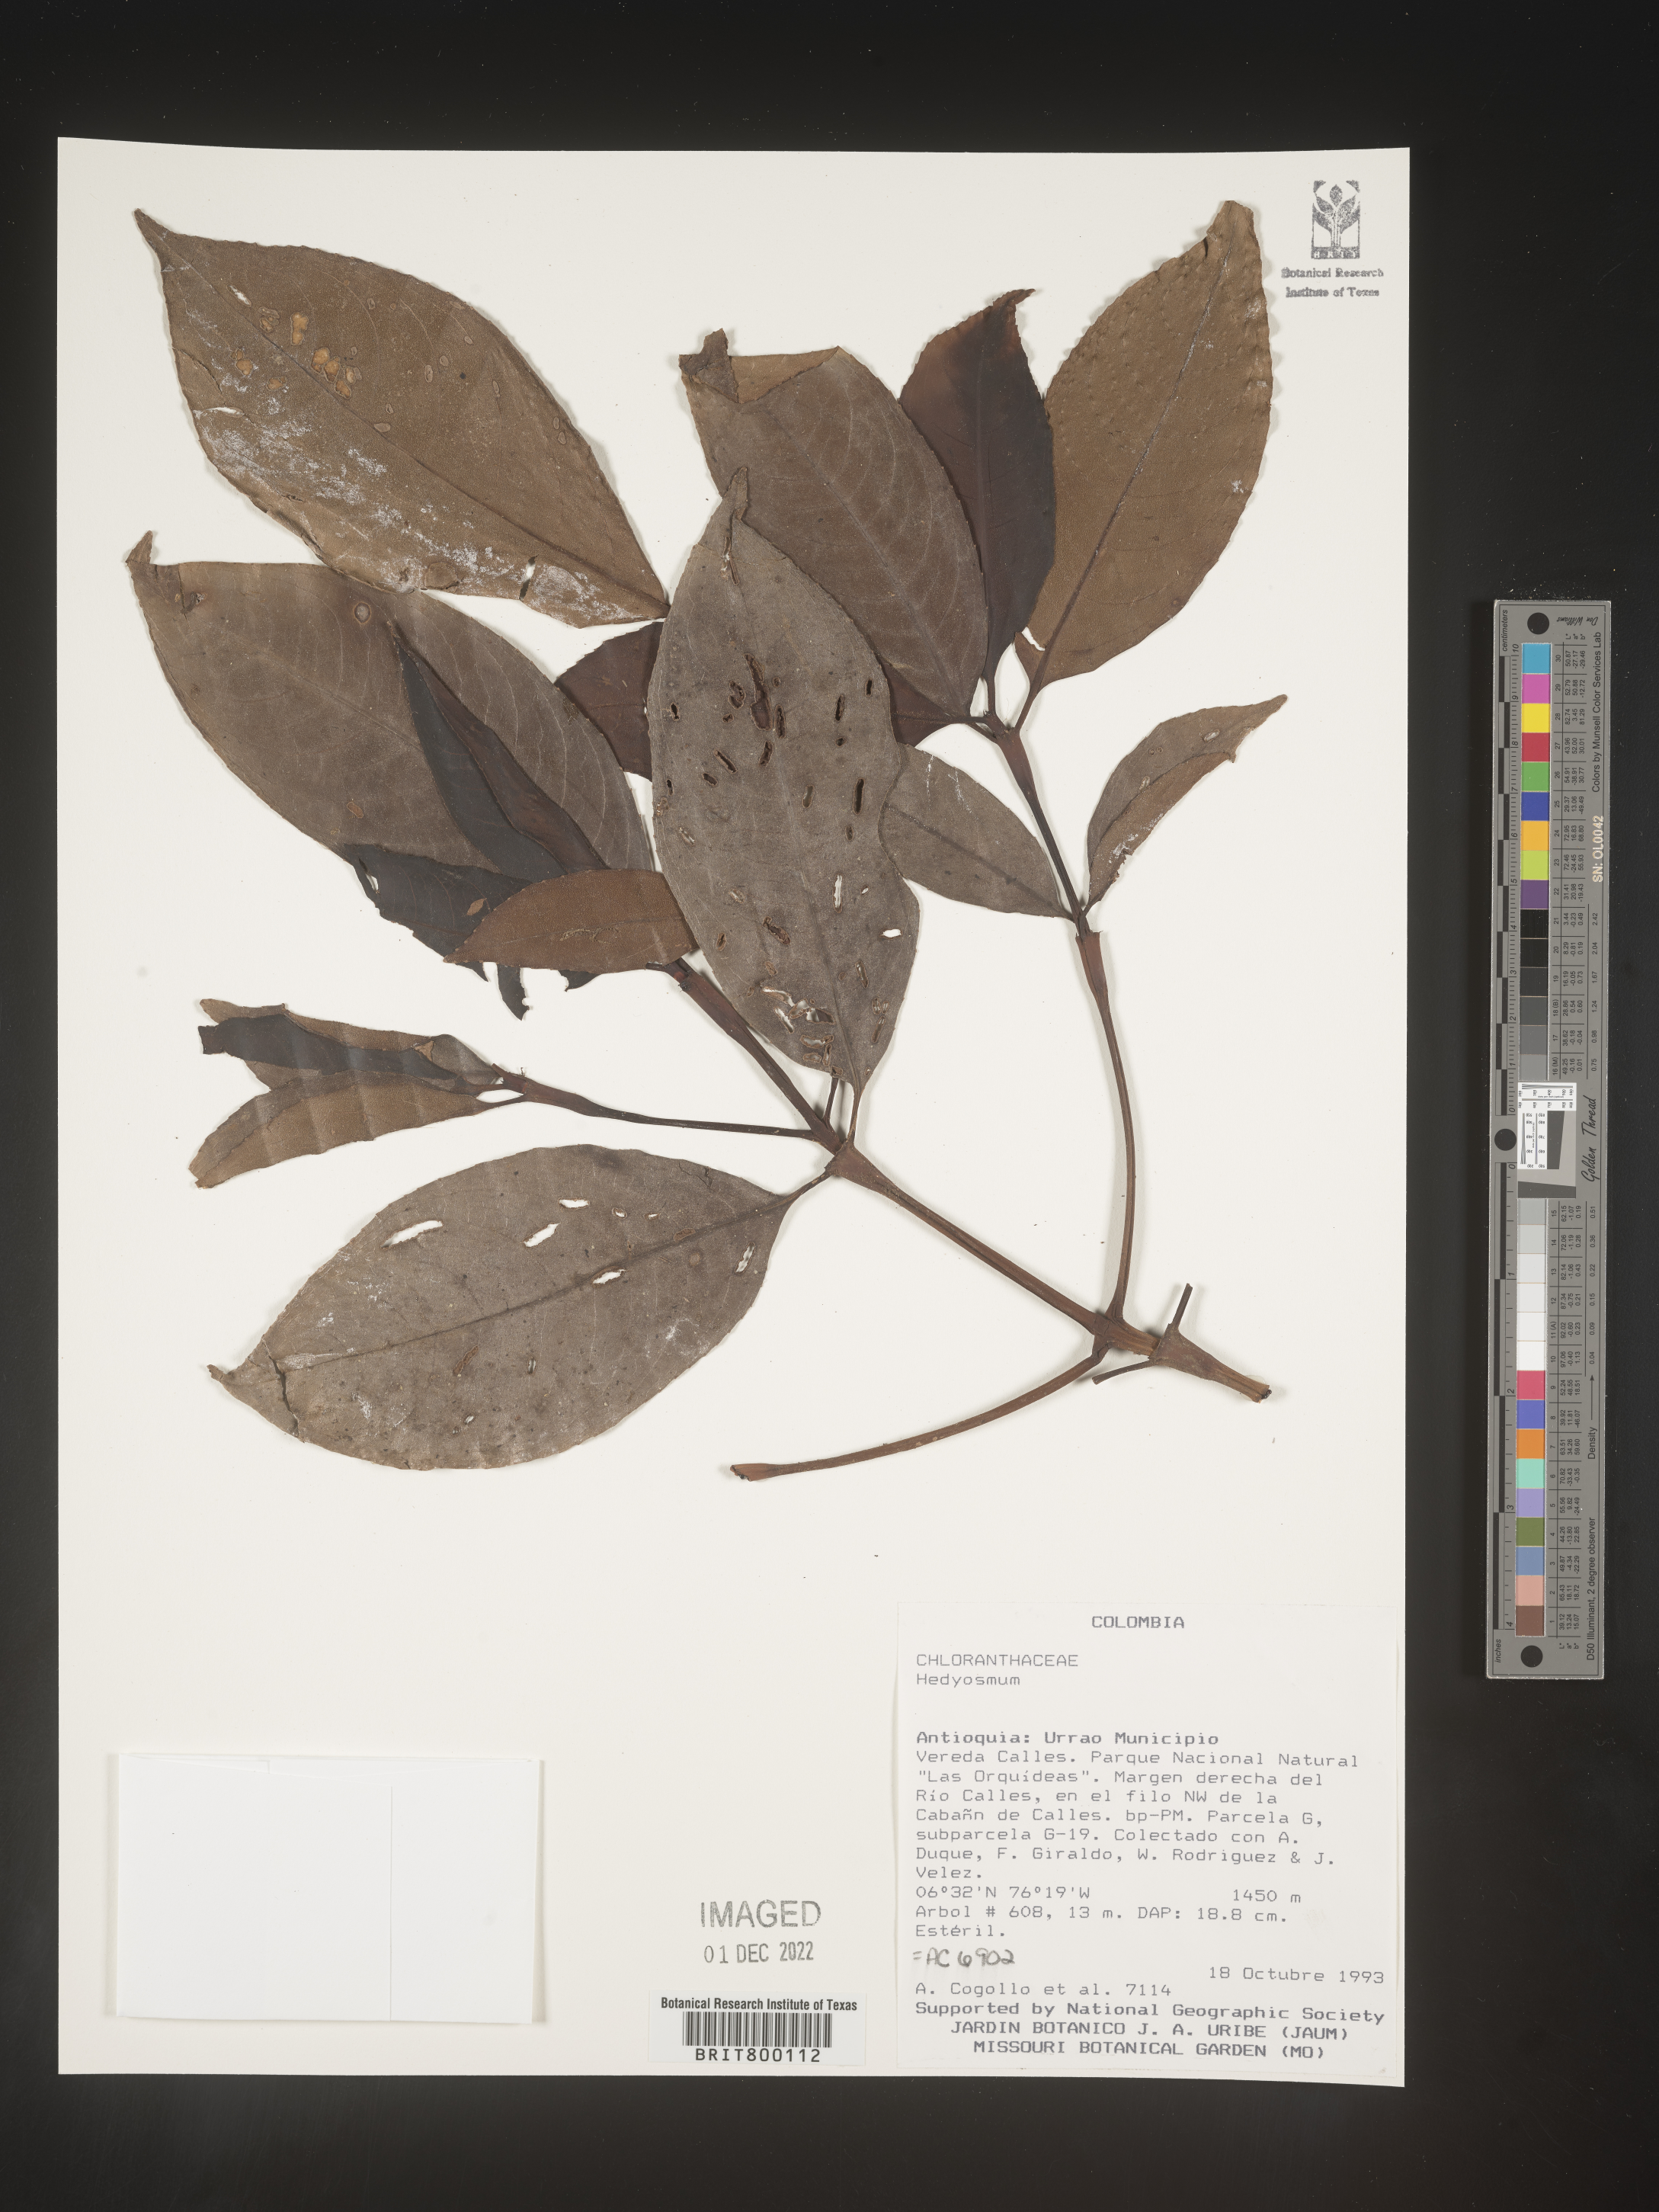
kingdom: Plantae
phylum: Tracheophyta
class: Magnoliopsida
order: Chloranthales
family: Chloranthaceae
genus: Hedyosmum
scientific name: Hedyosmum
